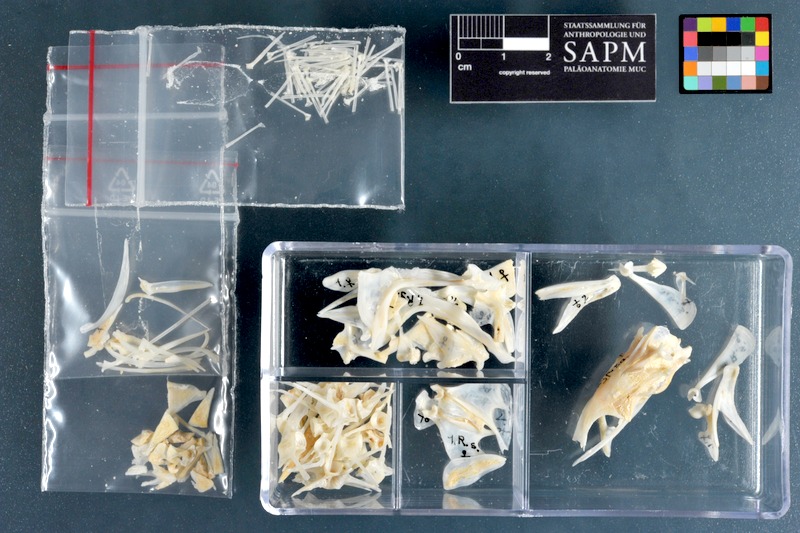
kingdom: Animalia
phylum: Chordata
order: Perciformes
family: Serranidae
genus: Rypticus
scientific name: Rypticus saponaceus
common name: Soapfish
